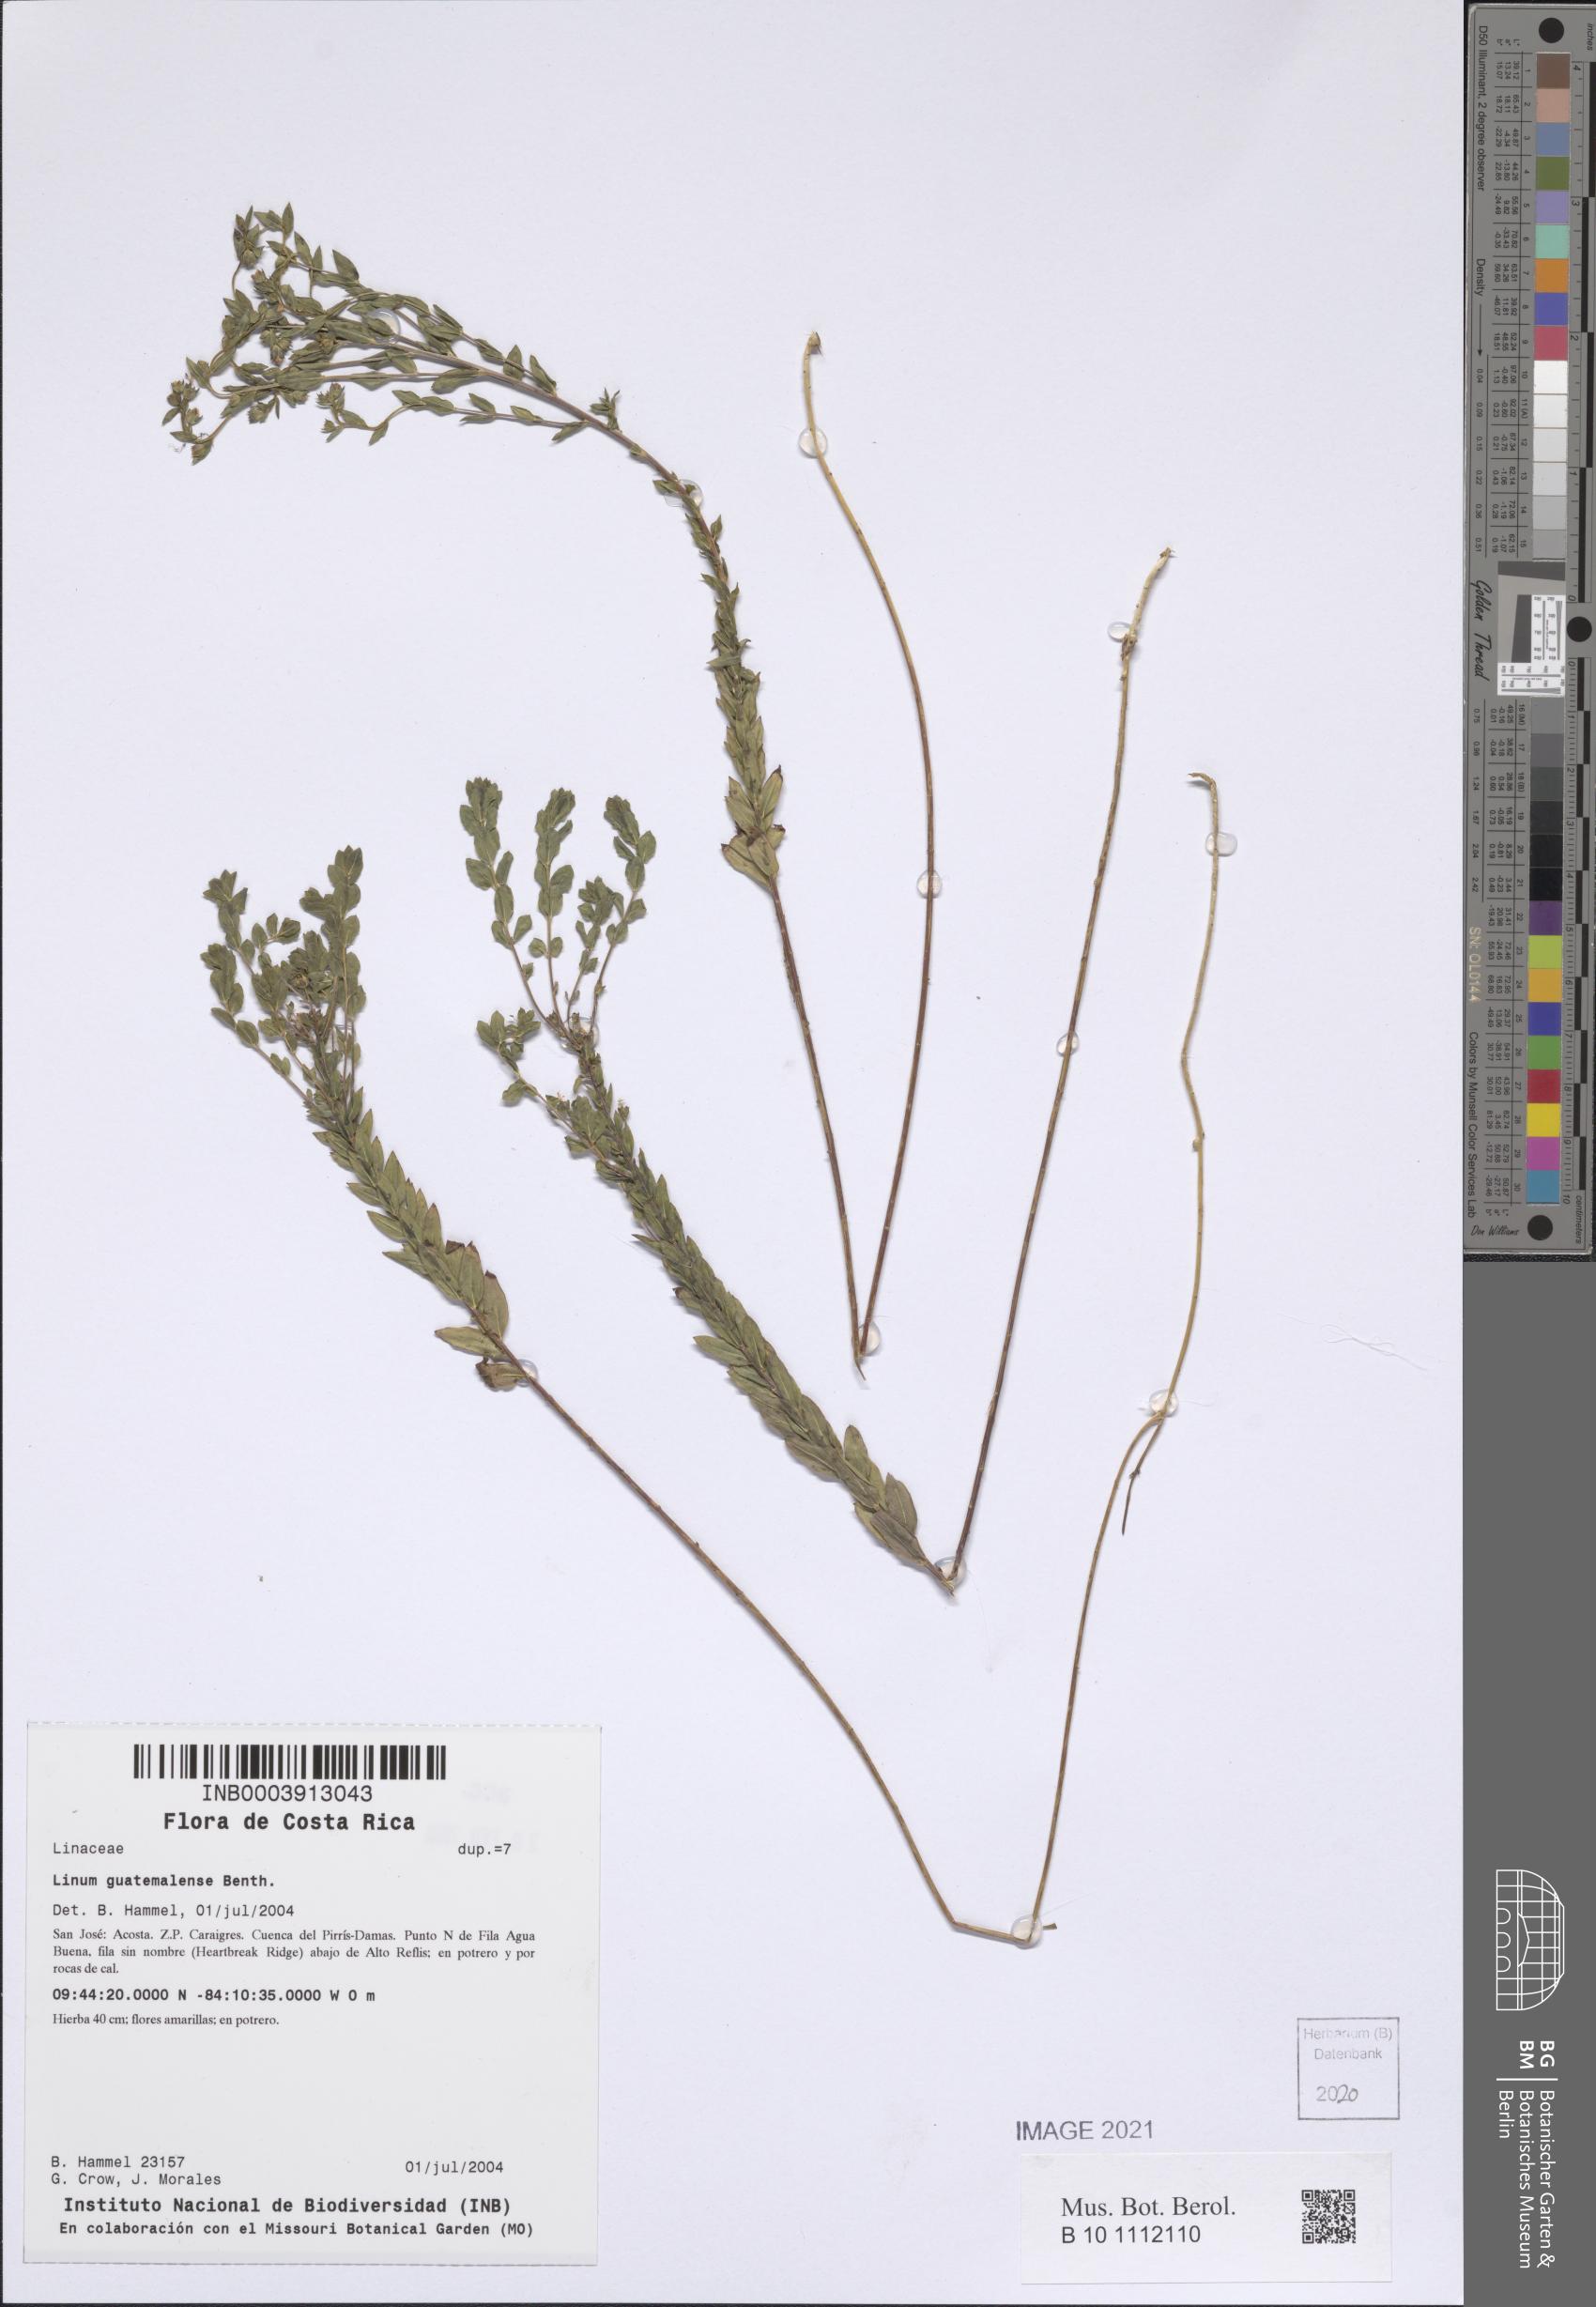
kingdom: Plantae
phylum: Tracheophyta
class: Magnoliopsida
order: Malpighiales
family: Linaceae
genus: Linum
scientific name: Linum guatemalense
